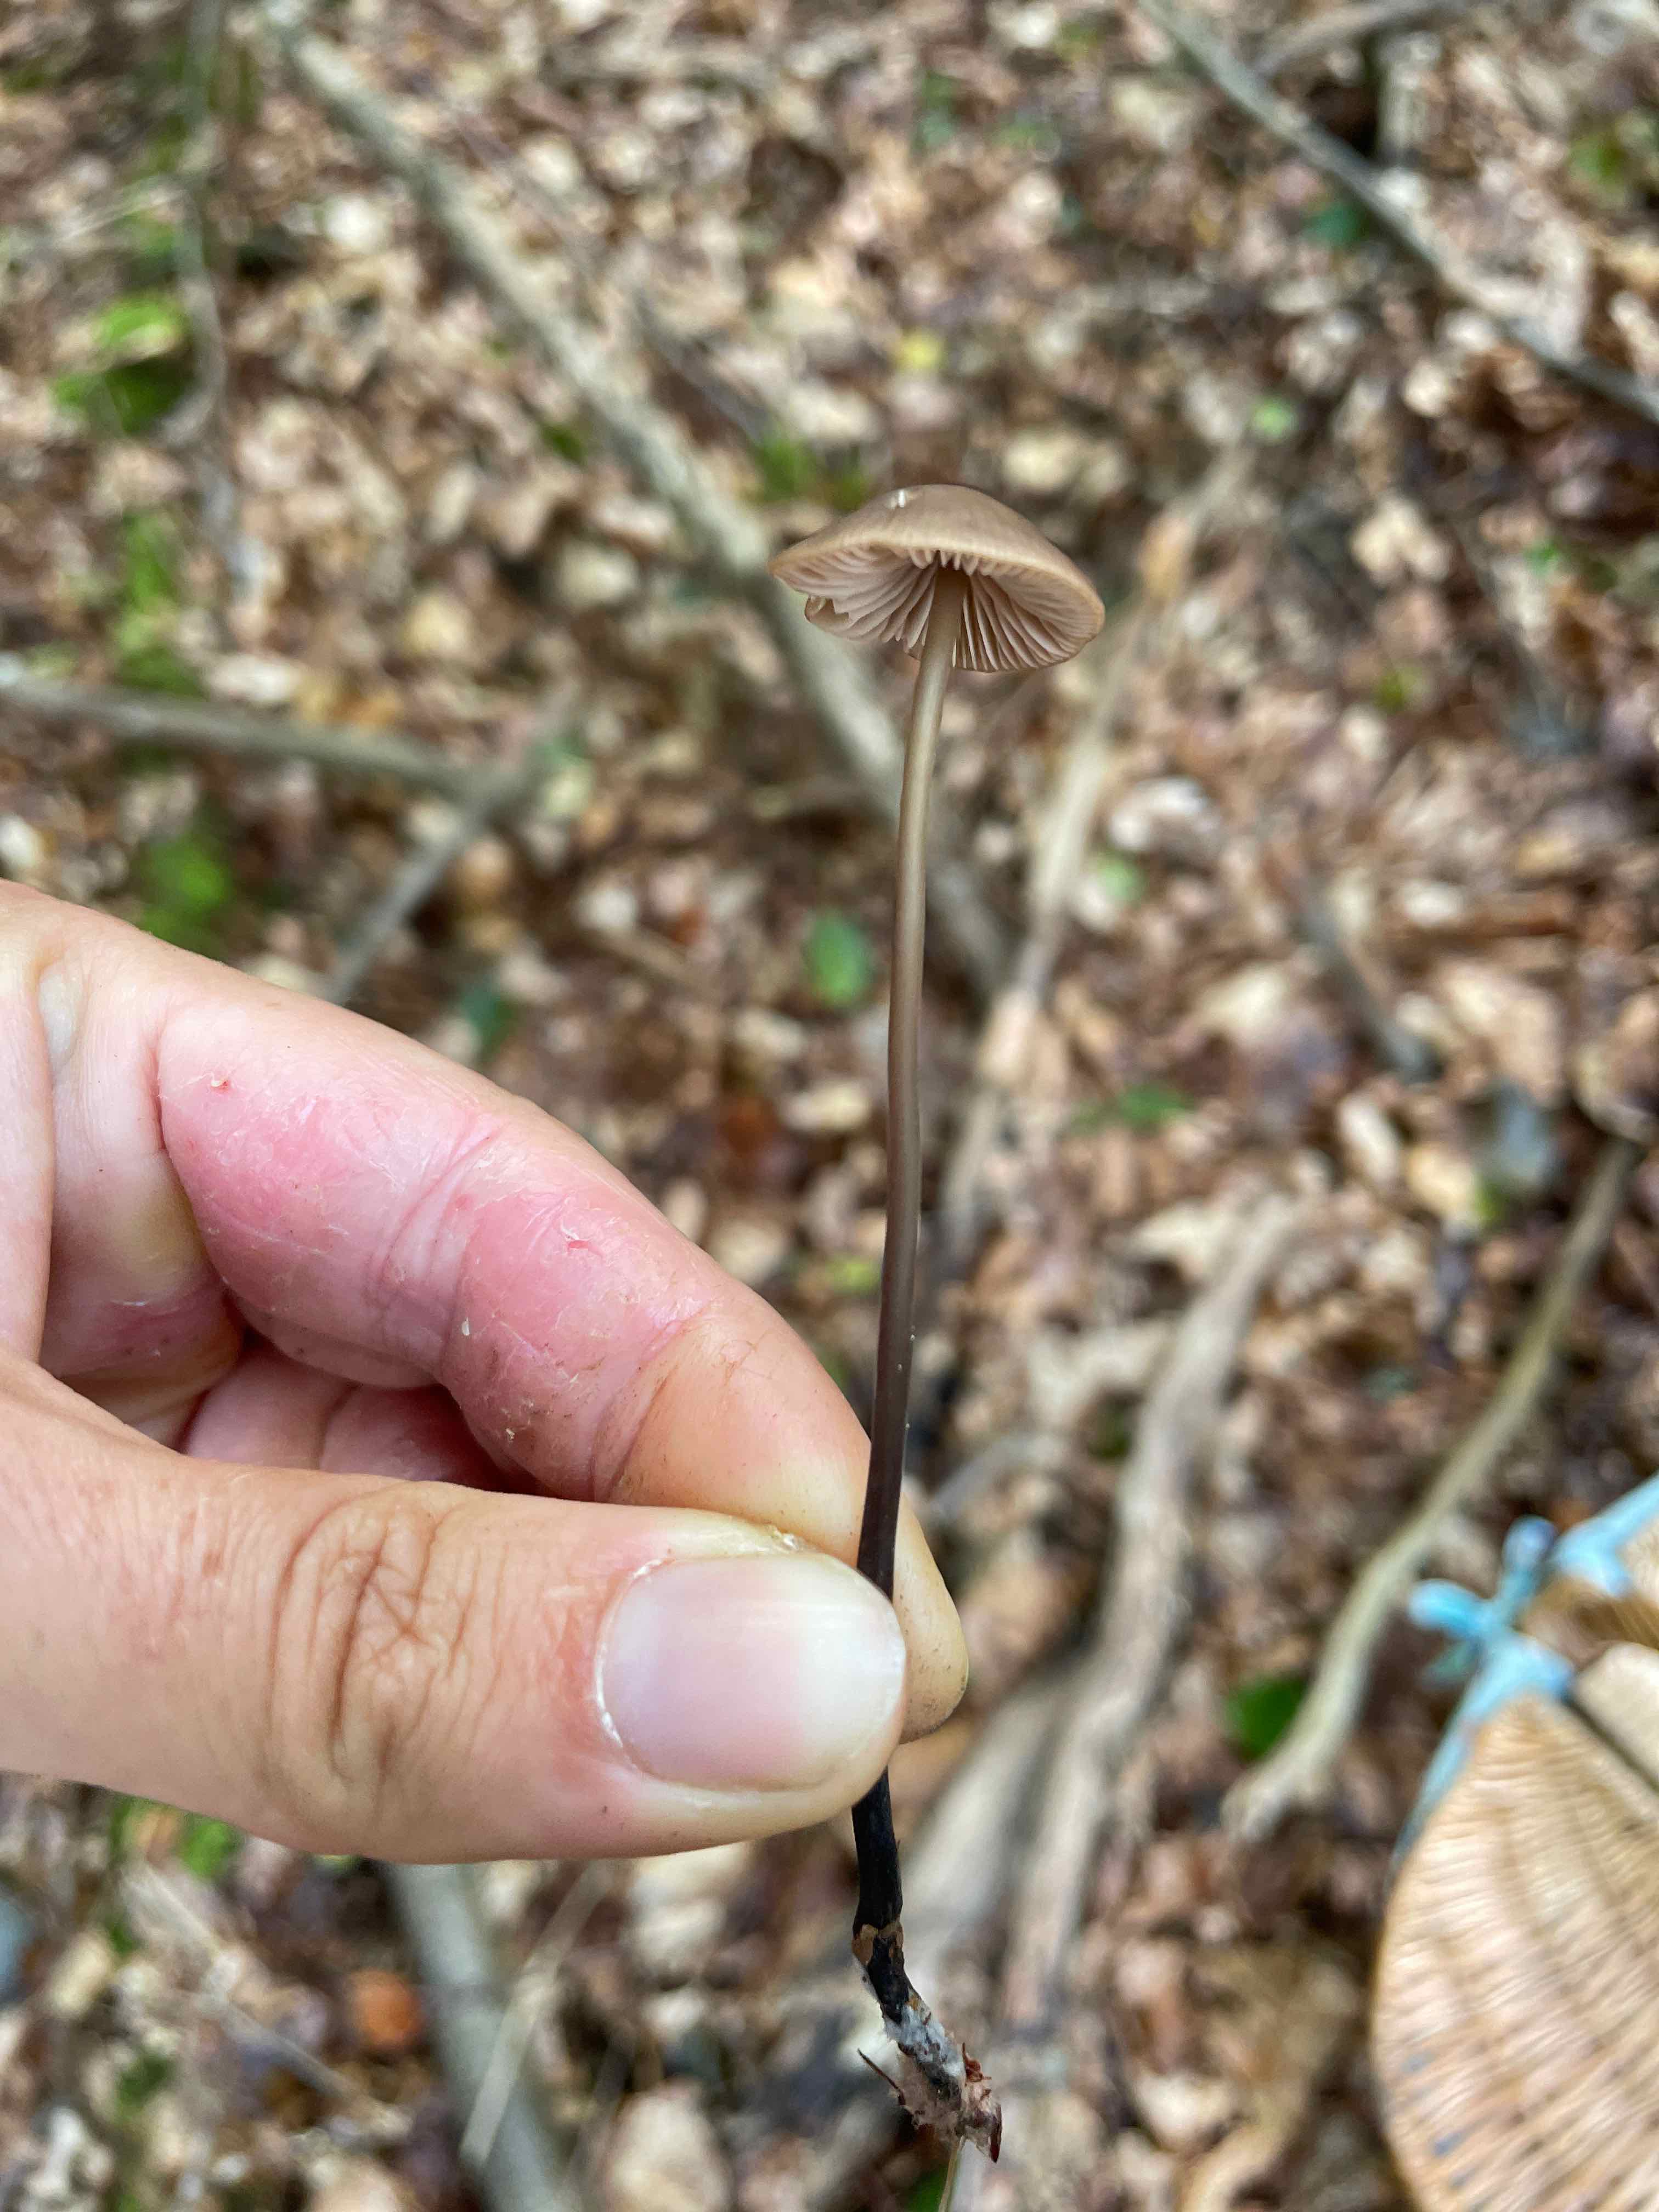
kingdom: Fungi
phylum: Basidiomycota
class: Agaricomycetes
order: Agaricales
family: Omphalotaceae
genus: Mycetinis
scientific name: Mycetinis alliaceus
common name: stor løghat
